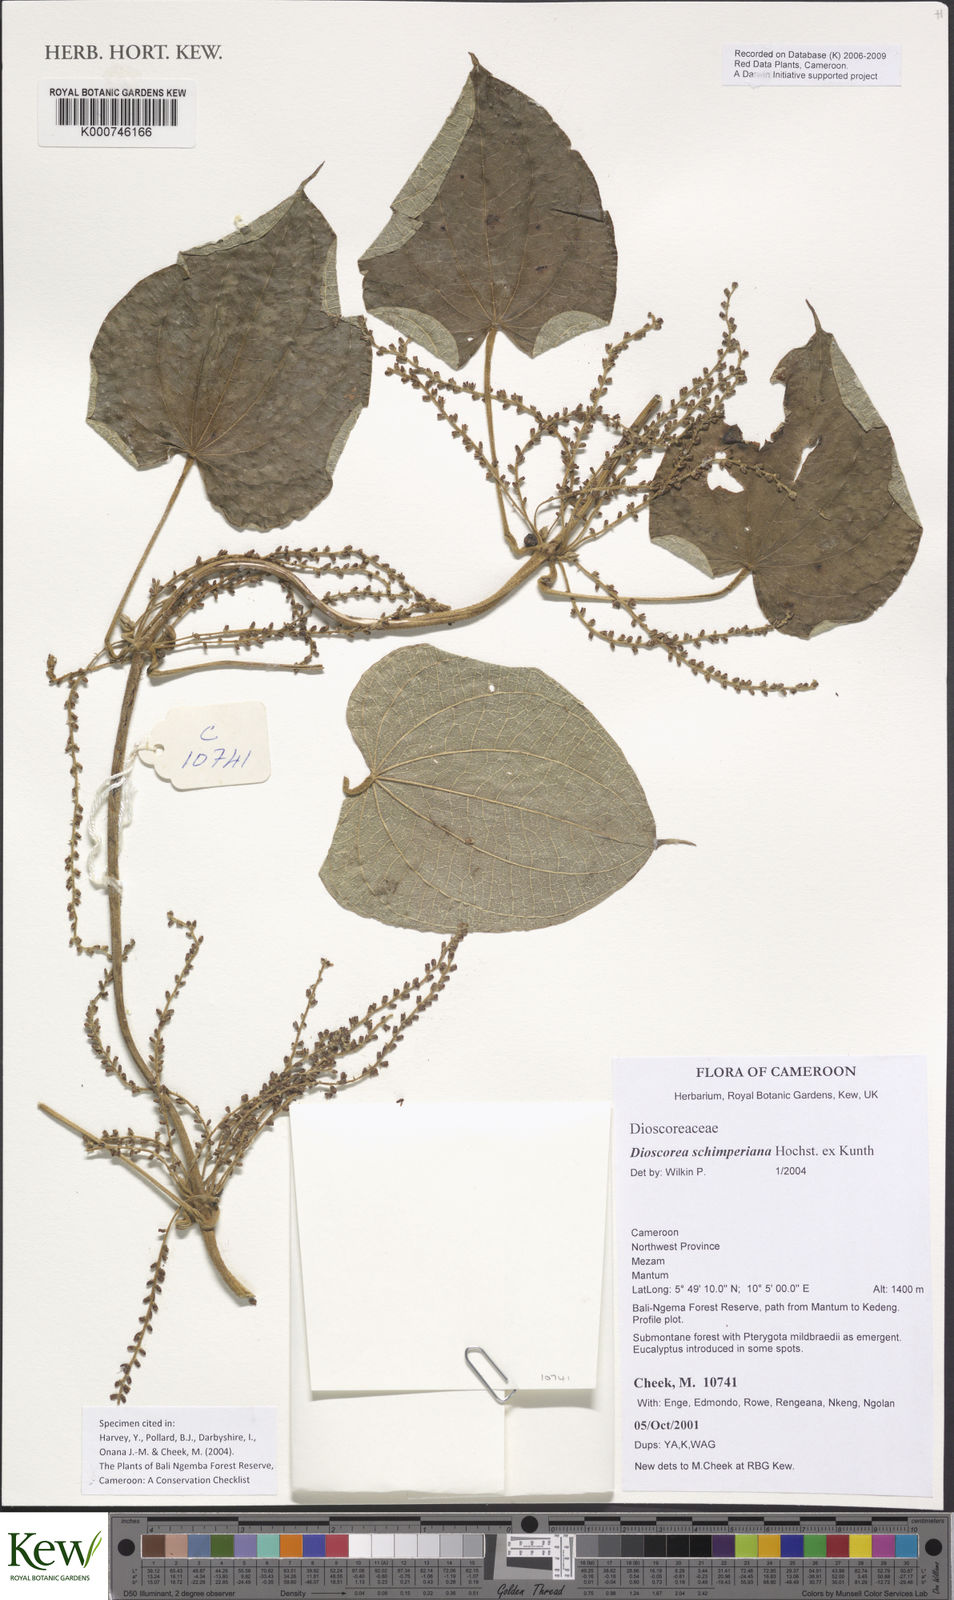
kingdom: Plantae
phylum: Tracheophyta
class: Liliopsida
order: Dioscoreales
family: Dioscoreaceae
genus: Dioscorea
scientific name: Dioscorea schimperiana
